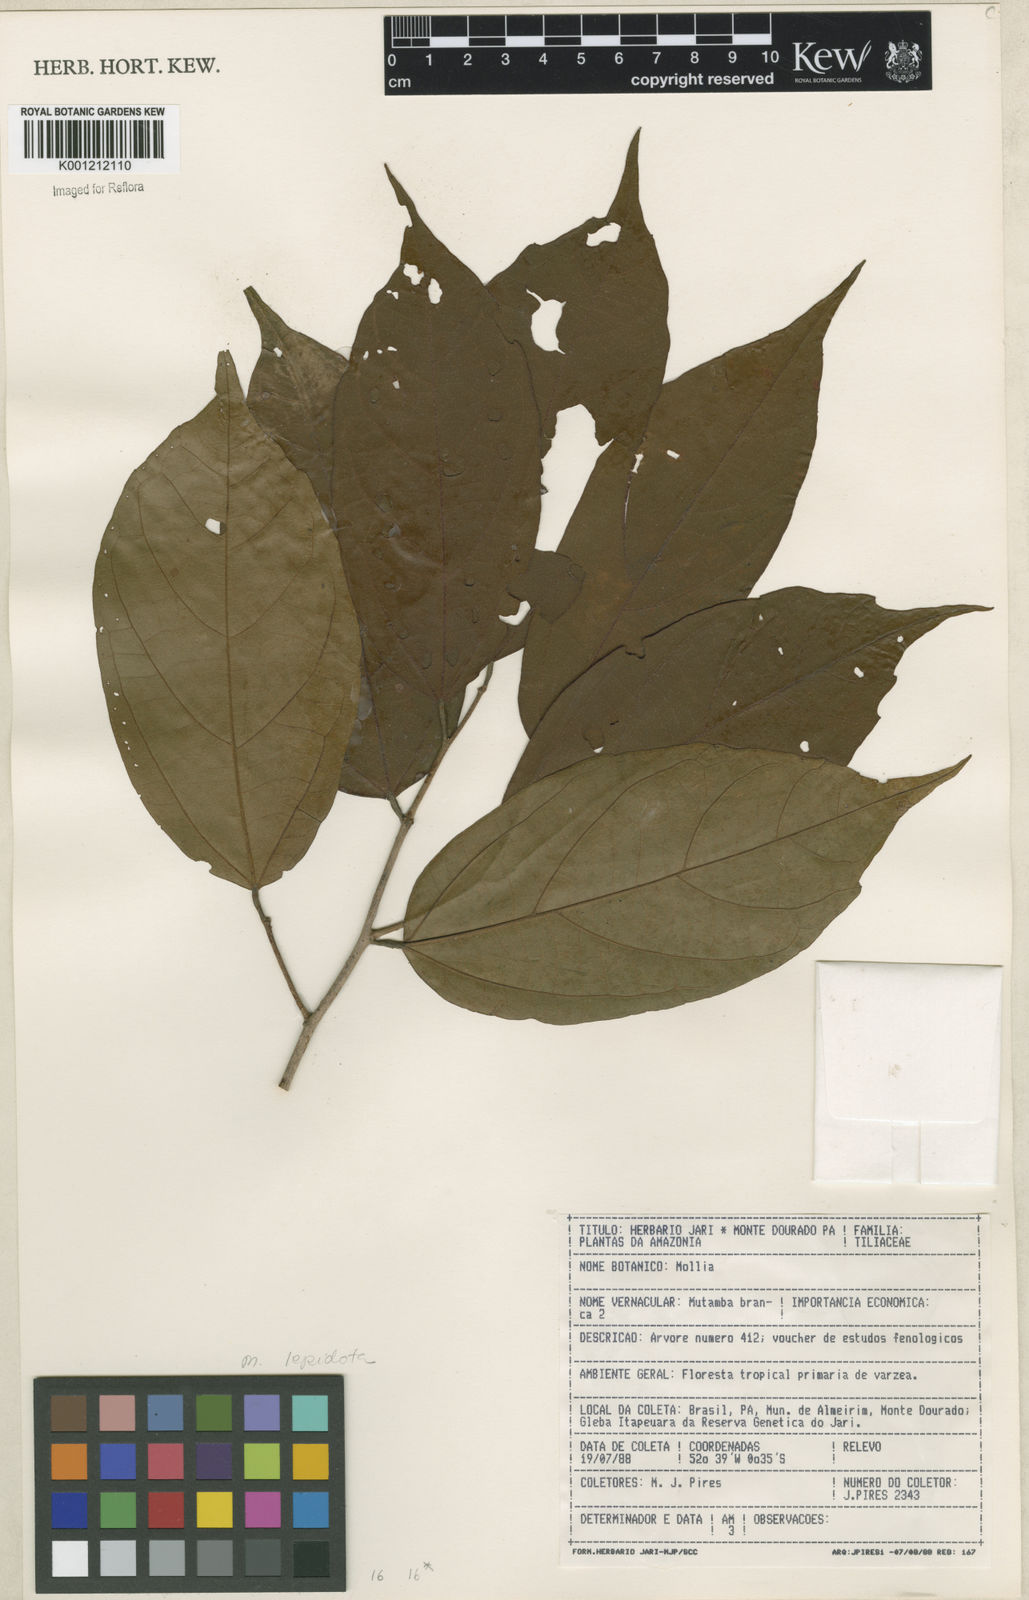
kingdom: Plantae
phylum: Tracheophyta
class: Magnoliopsida
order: Malvales
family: Malvaceae
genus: Mollia
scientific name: Mollia lepidota
